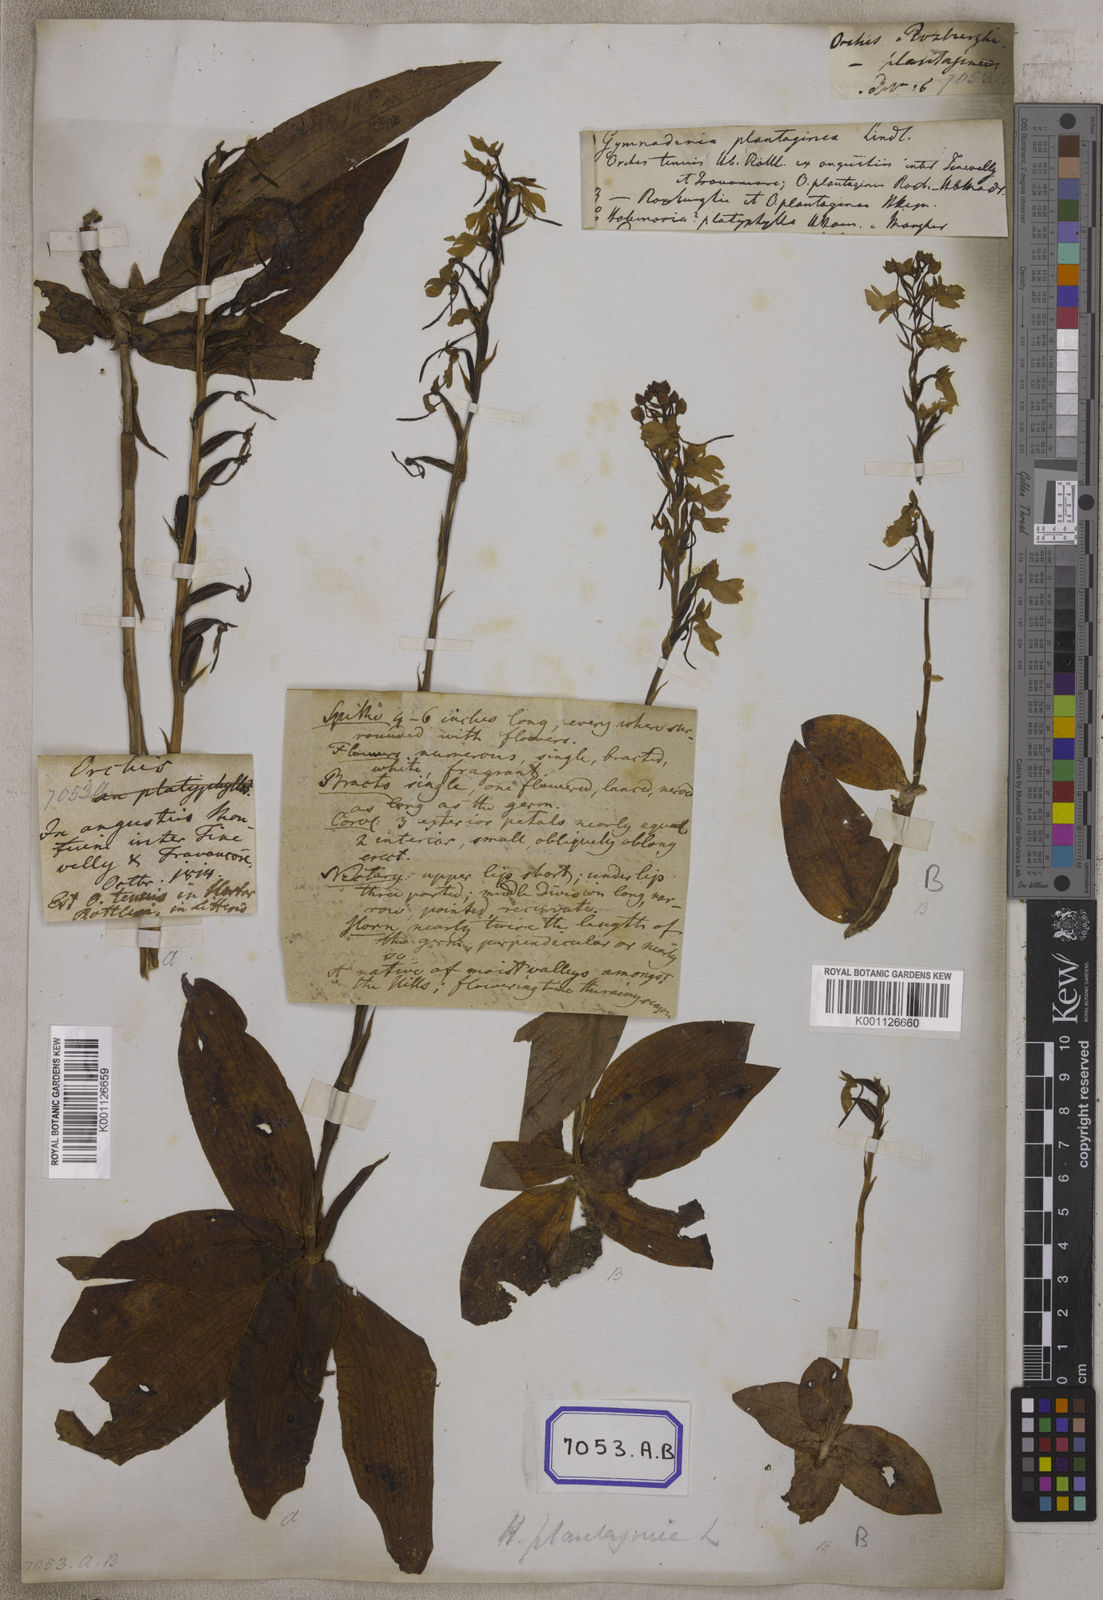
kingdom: Plantae
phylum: Tracheophyta
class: Liliopsida
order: Asparagales
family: Orchidaceae
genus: Gymnadenia
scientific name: Gymnadenia
